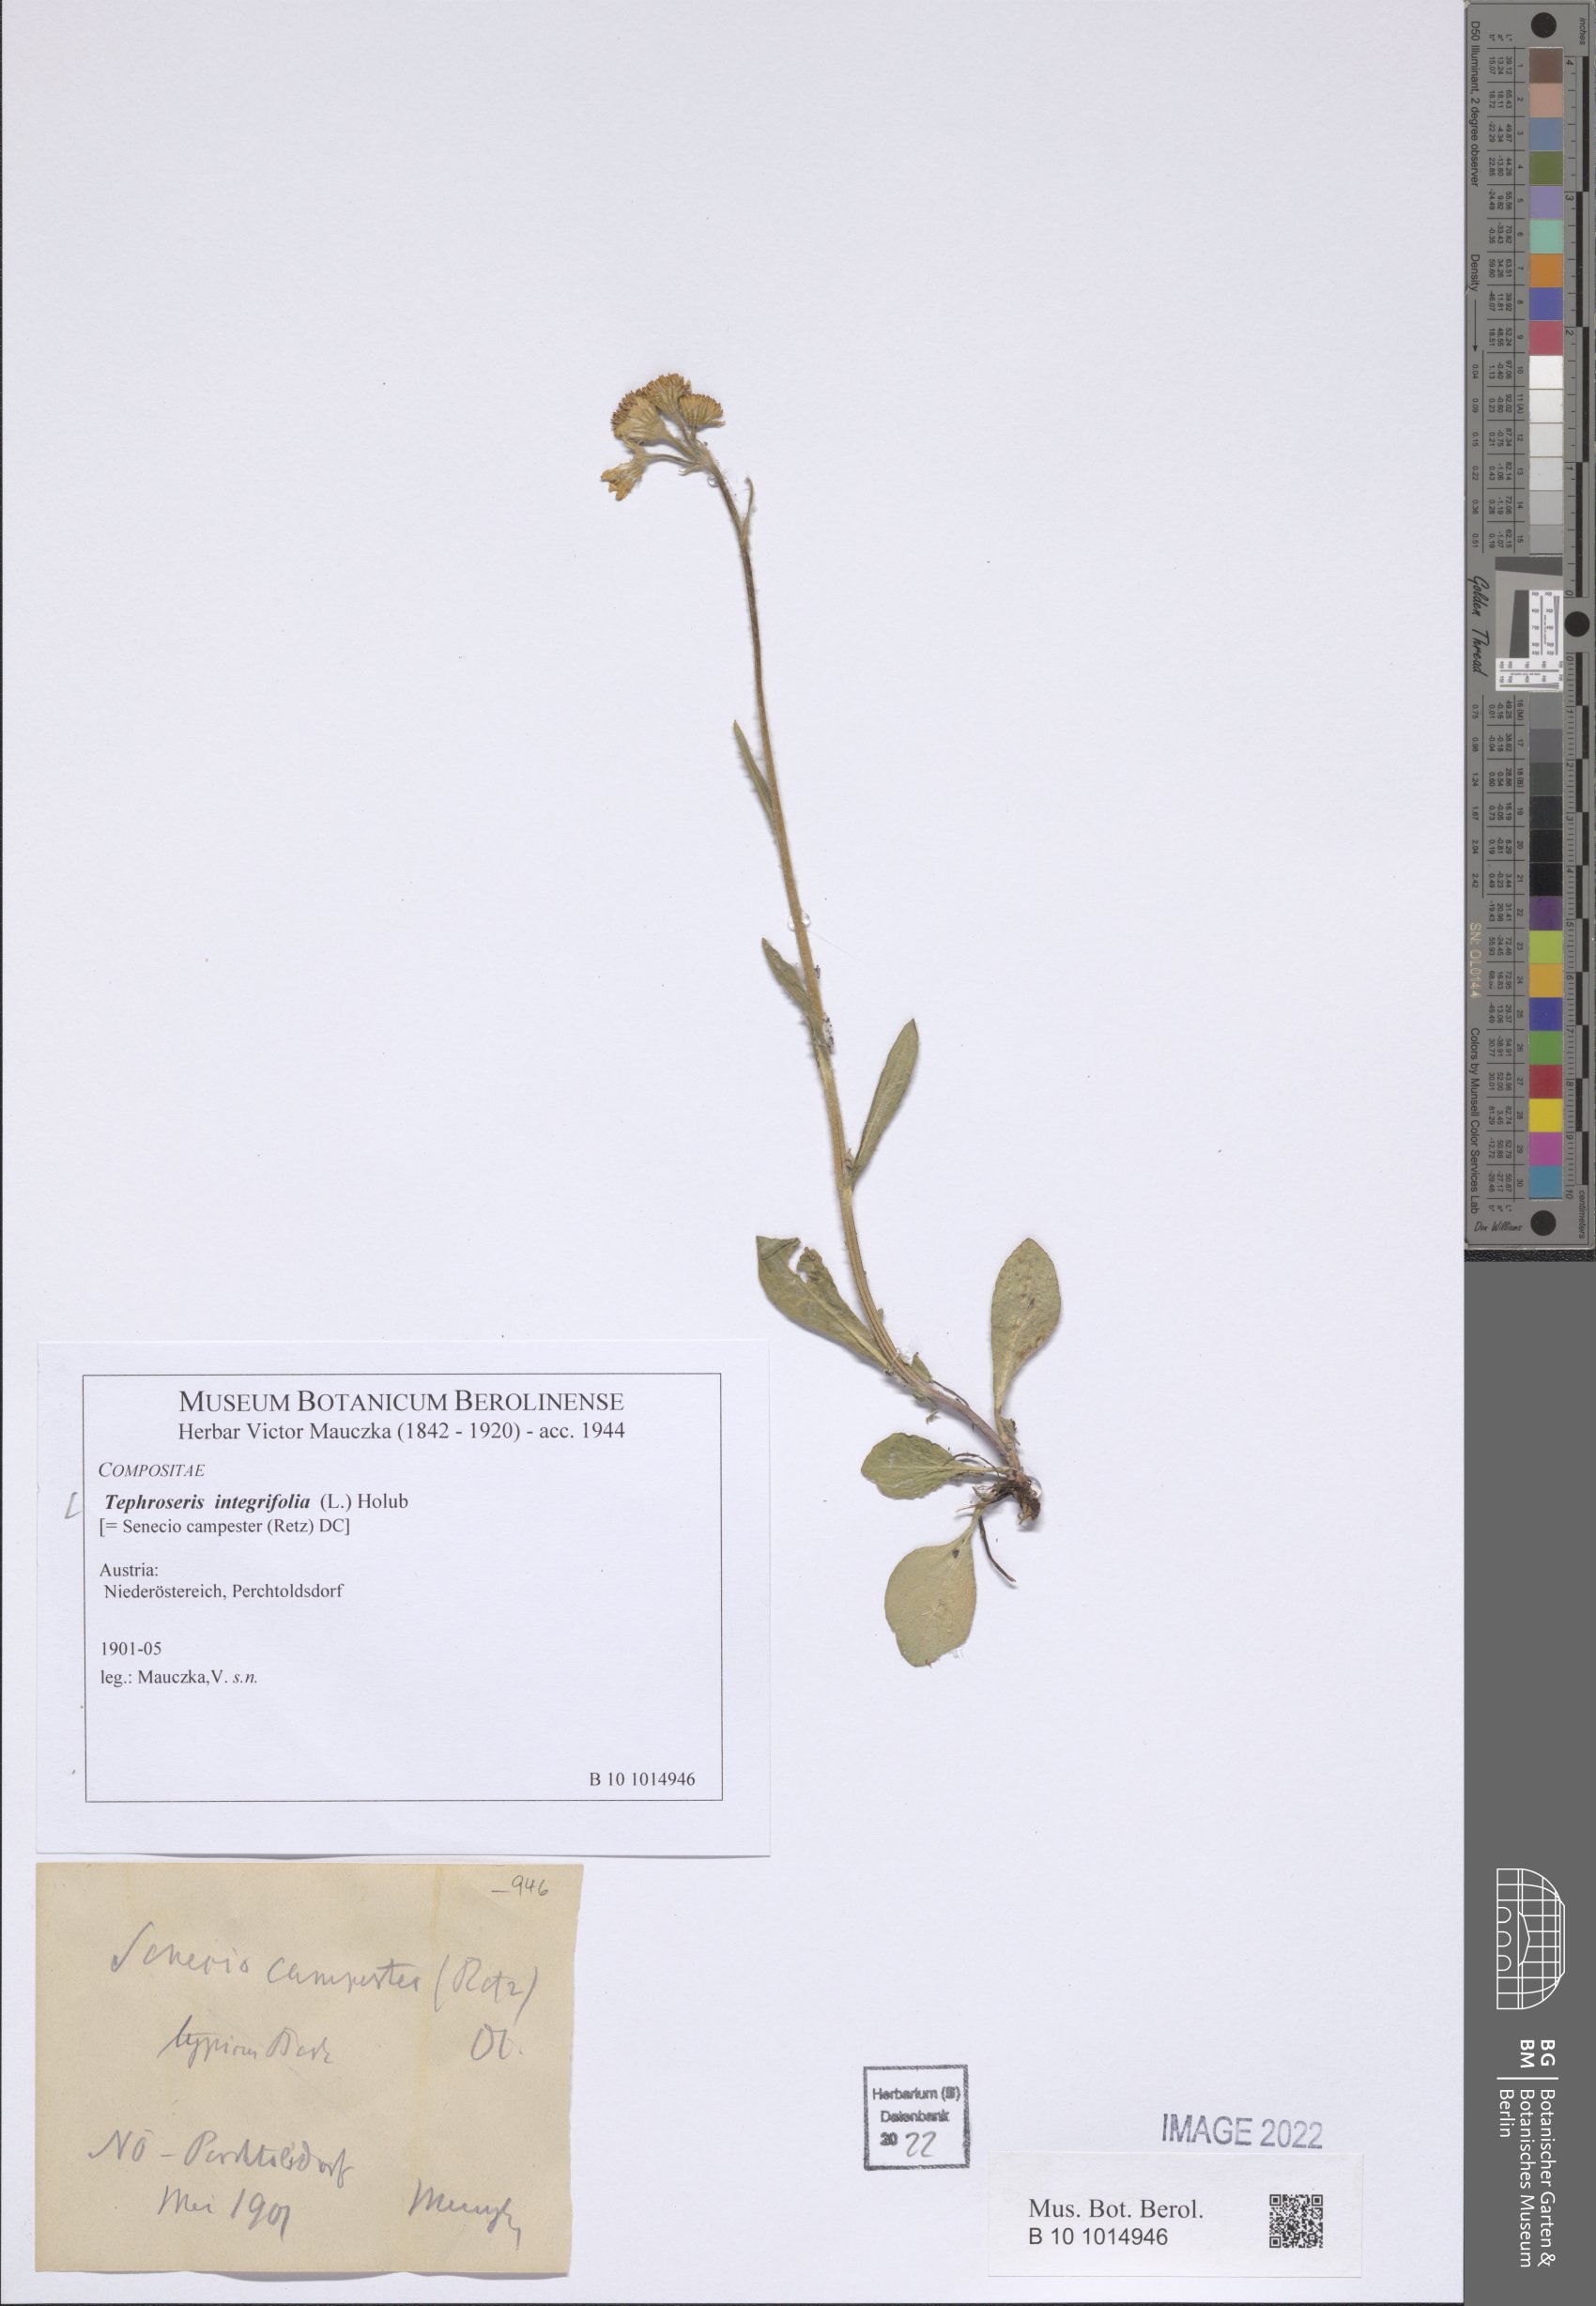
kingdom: Plantae
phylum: Tracheophyta
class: Magnoliopsida
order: Asterales
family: Asteraceae
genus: Tephroseris
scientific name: Tephroseris integrifolia
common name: Field fleawort
